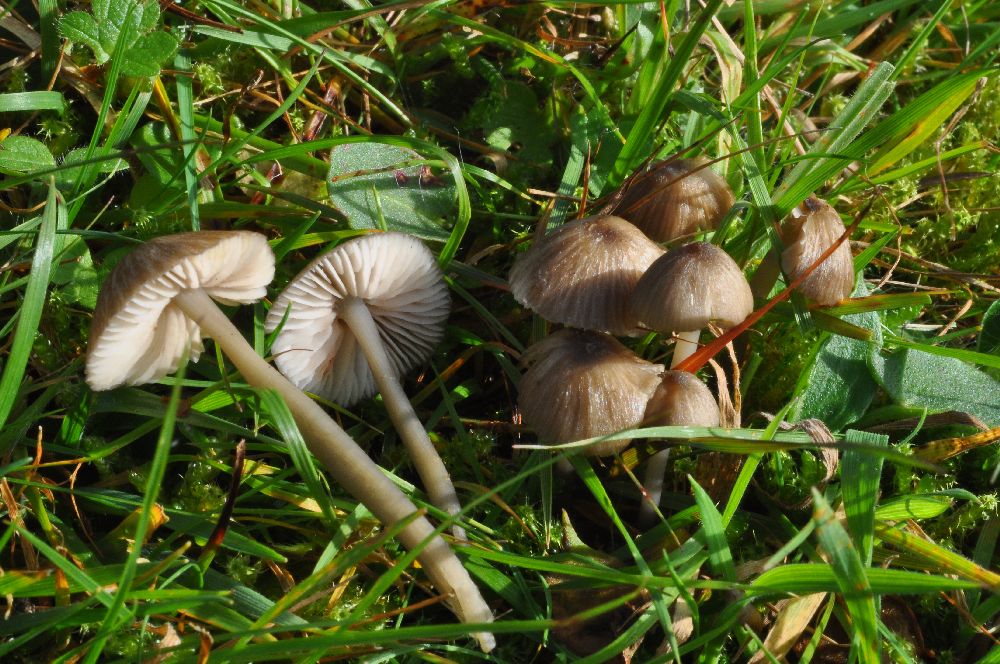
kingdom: Fungi
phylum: Basidiomycota
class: Agaricomycetes
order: Agaricales
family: Entolomataceae
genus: Entoloma
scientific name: Entoloma
